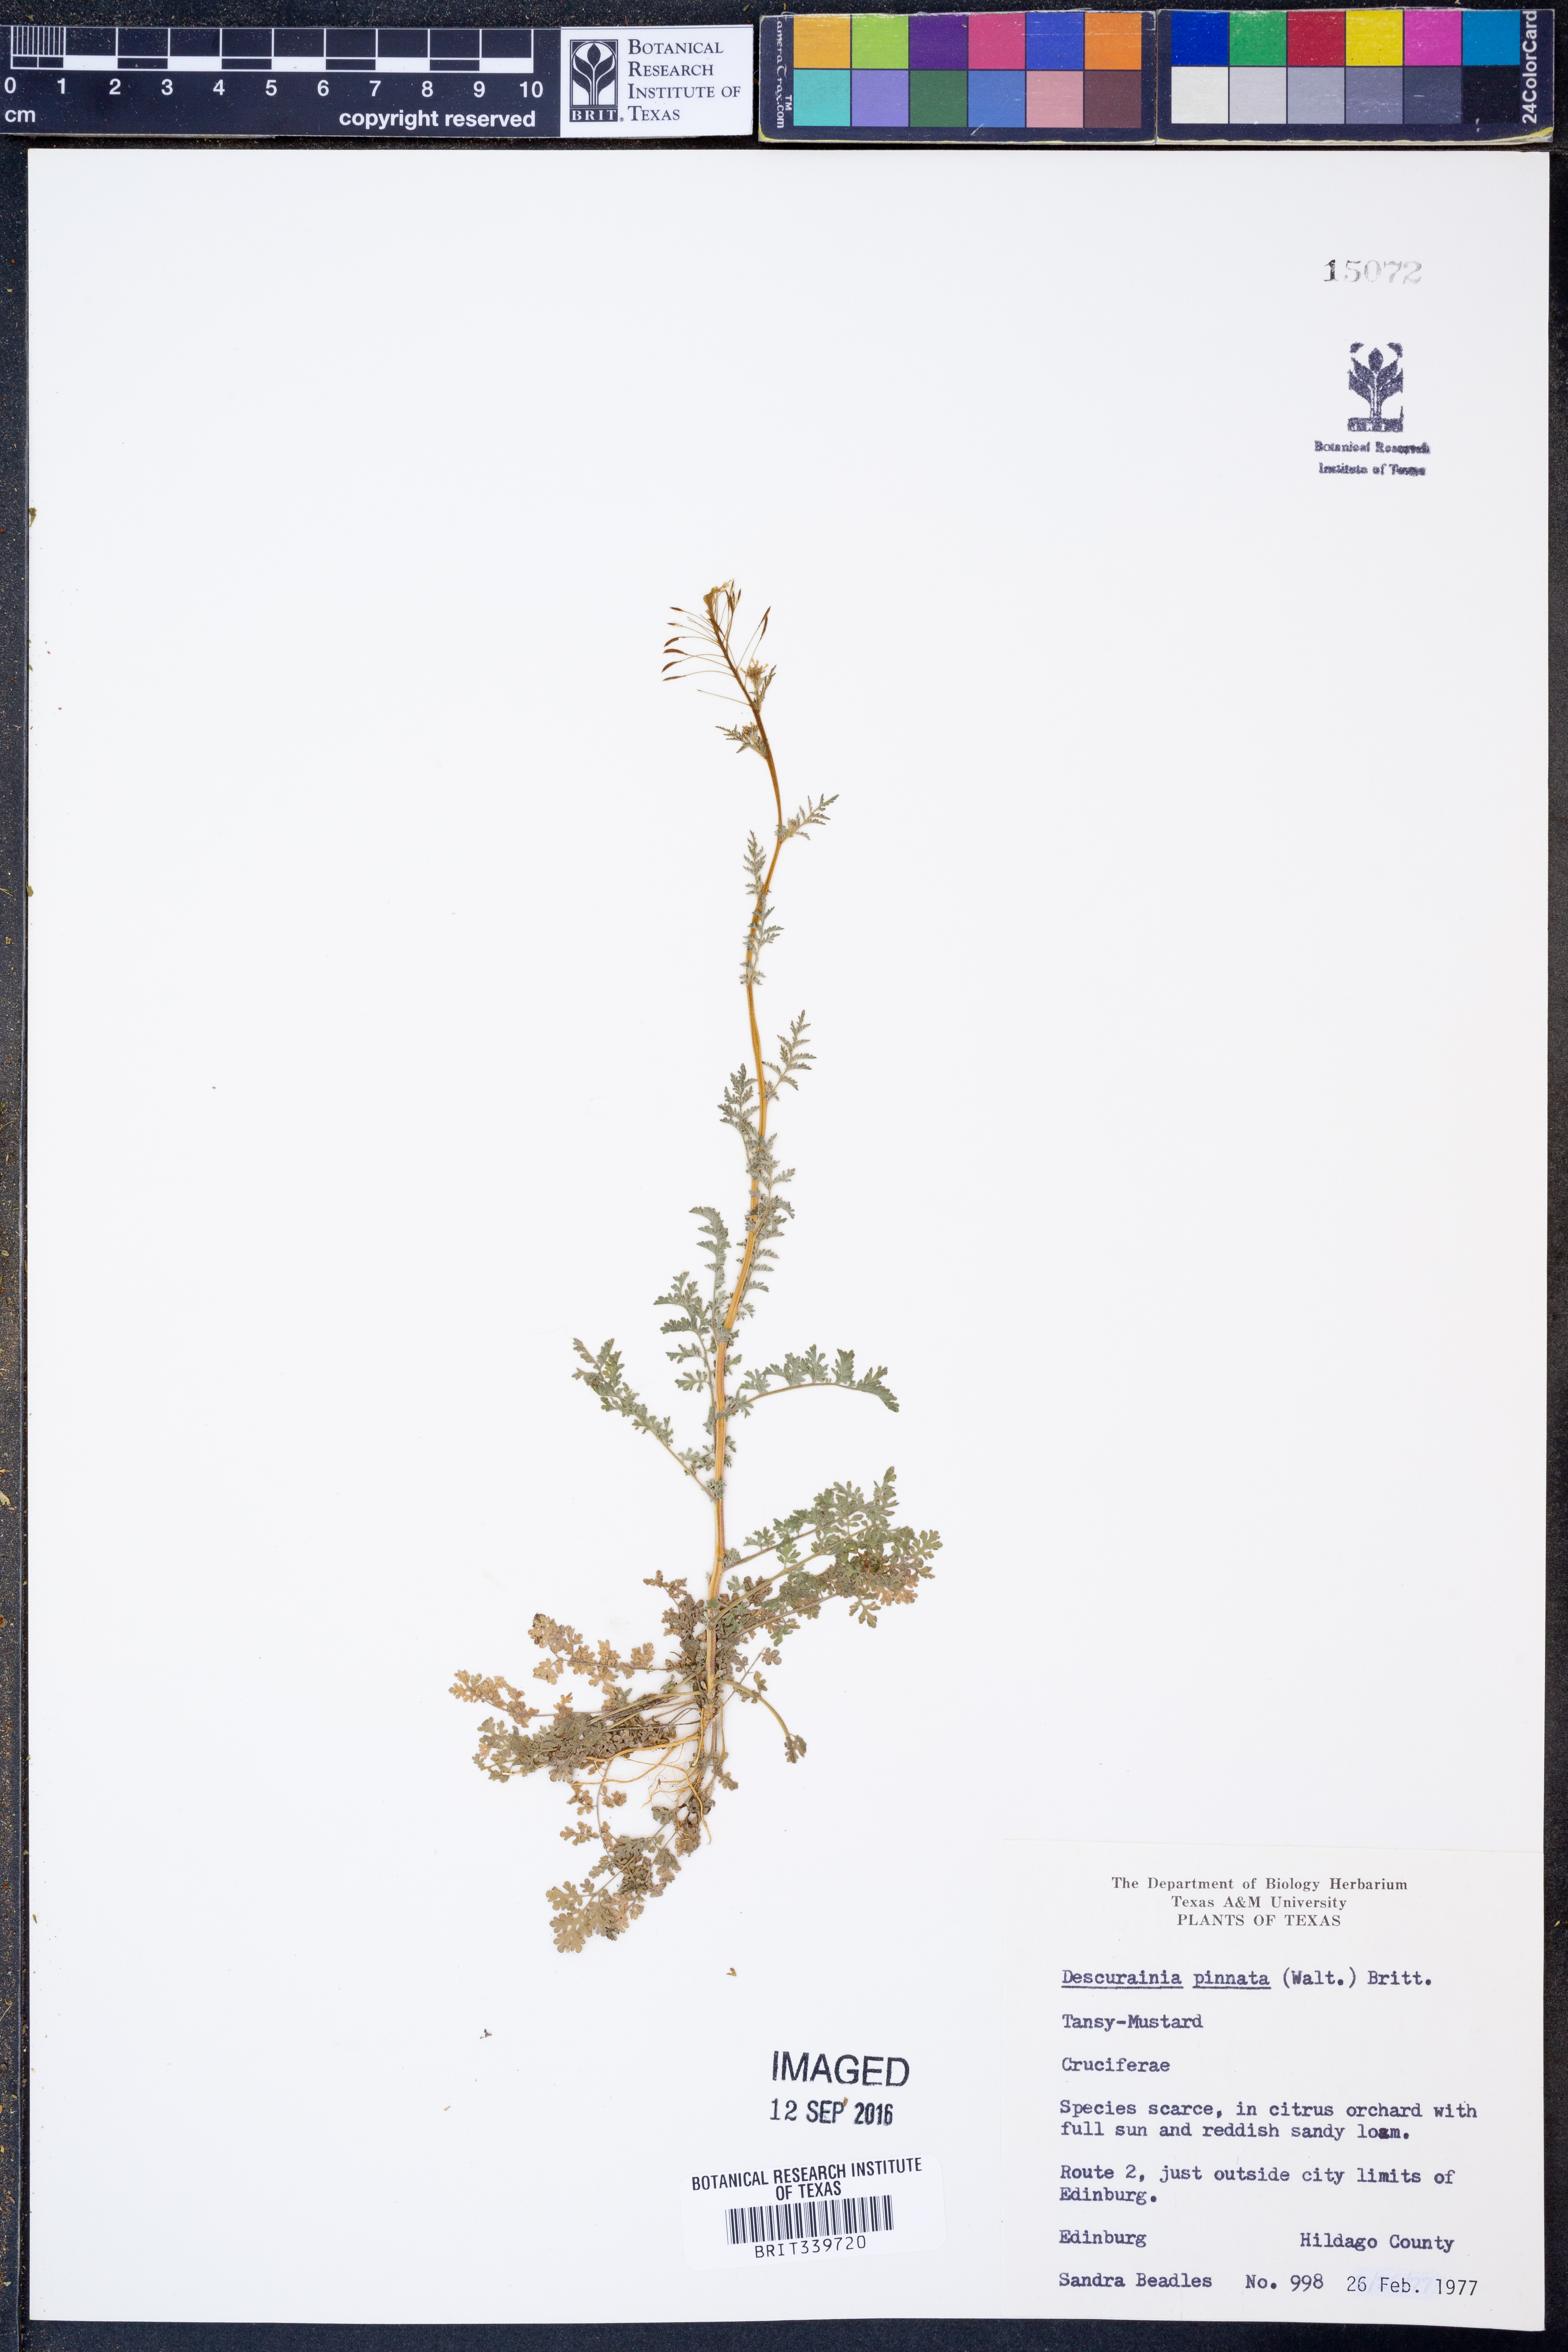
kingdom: Plantae
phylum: Tracheophyta
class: Magnoliopsida
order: Brassicales
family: Brassicaceae
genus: Descurainia
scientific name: Descurainia pinnata
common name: Western tansy mustard
